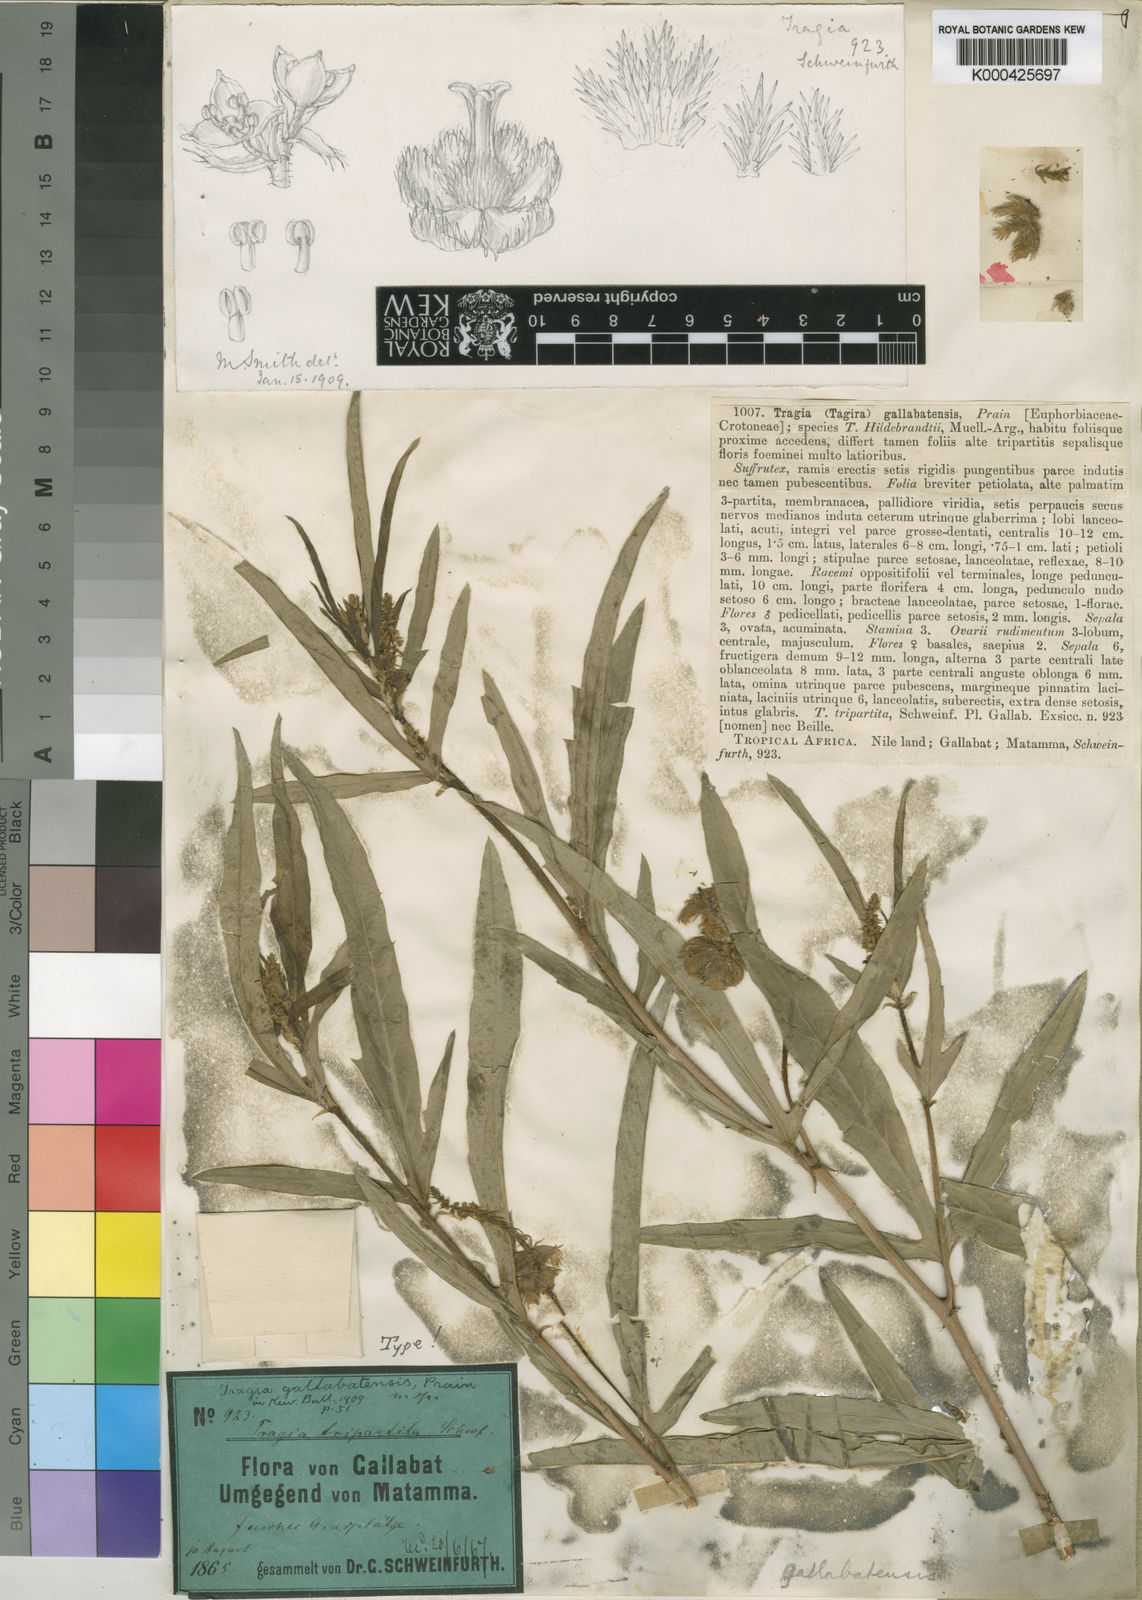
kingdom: Plantae
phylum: Tracheophyta
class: Magnoliopsida
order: Malpighiales
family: Euphorbiaceae
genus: Tragia
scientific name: Tragia tripartita
